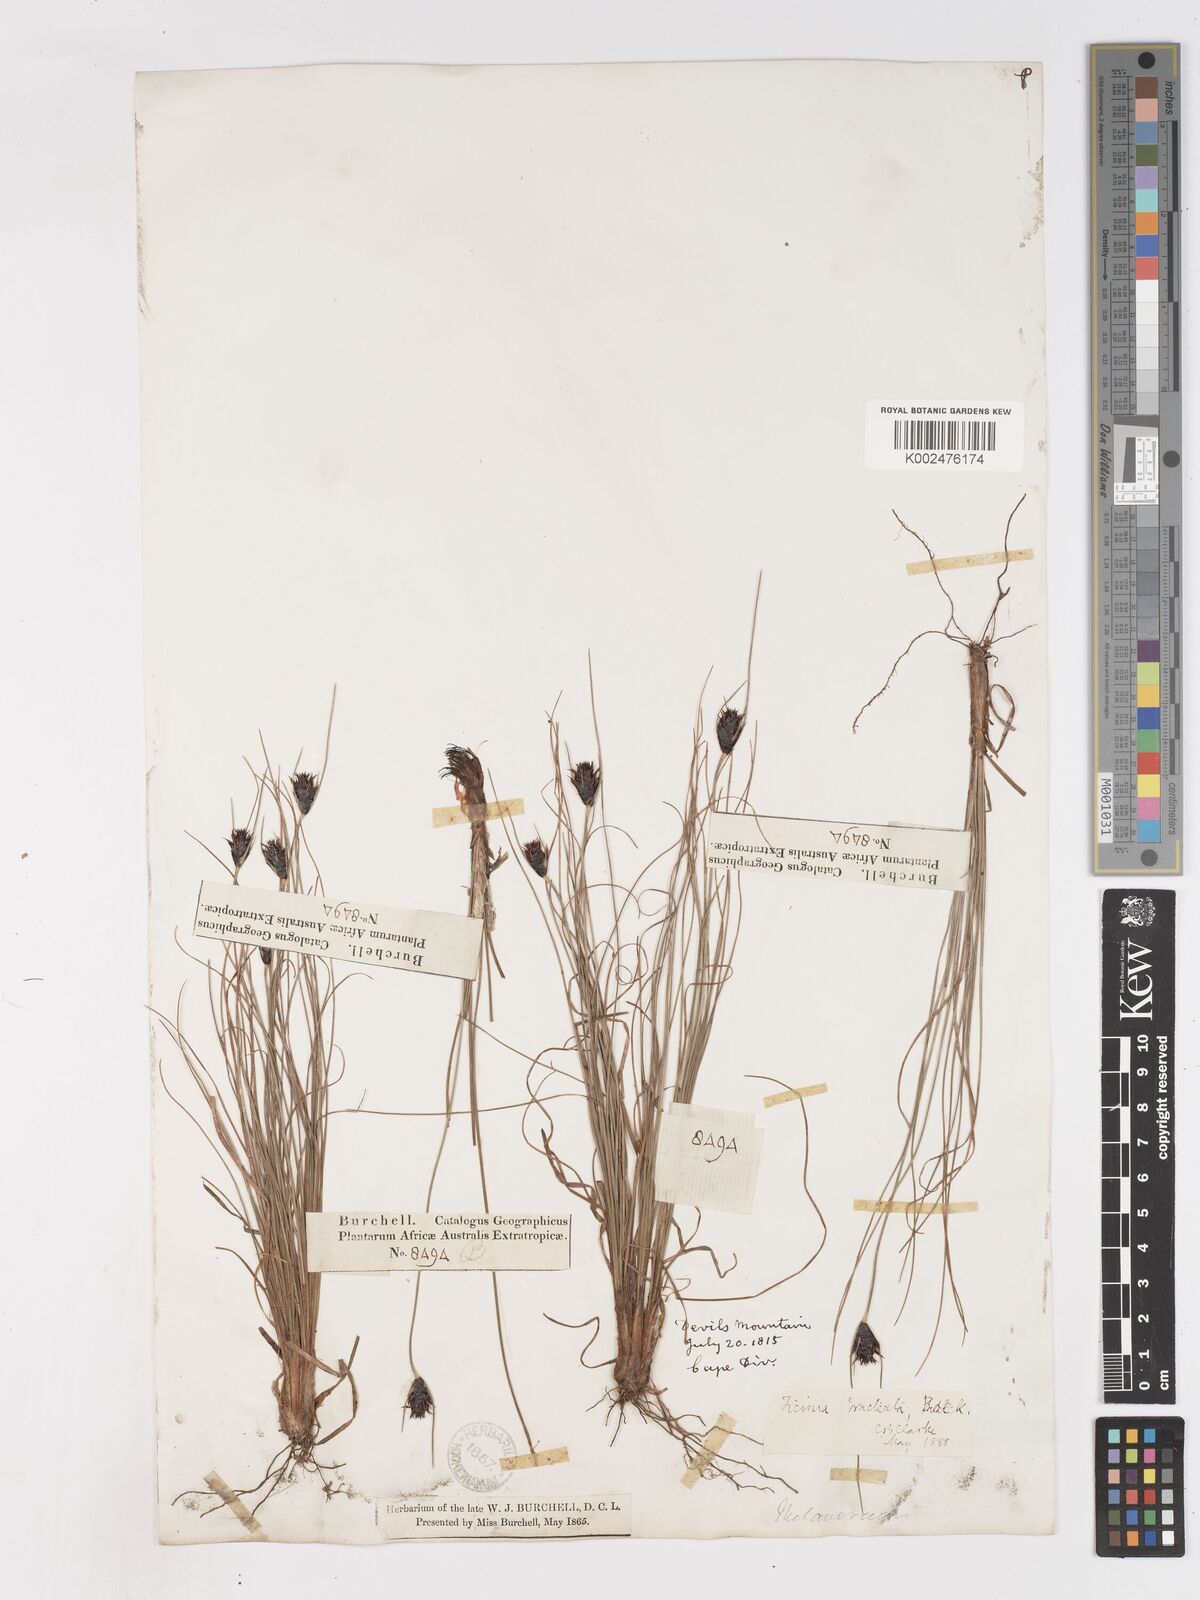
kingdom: Plantae
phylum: Tracheophyta
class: Liliopsida
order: Poales
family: Cyperaceae
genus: Ficinia
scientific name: Ficinia nigrescens
